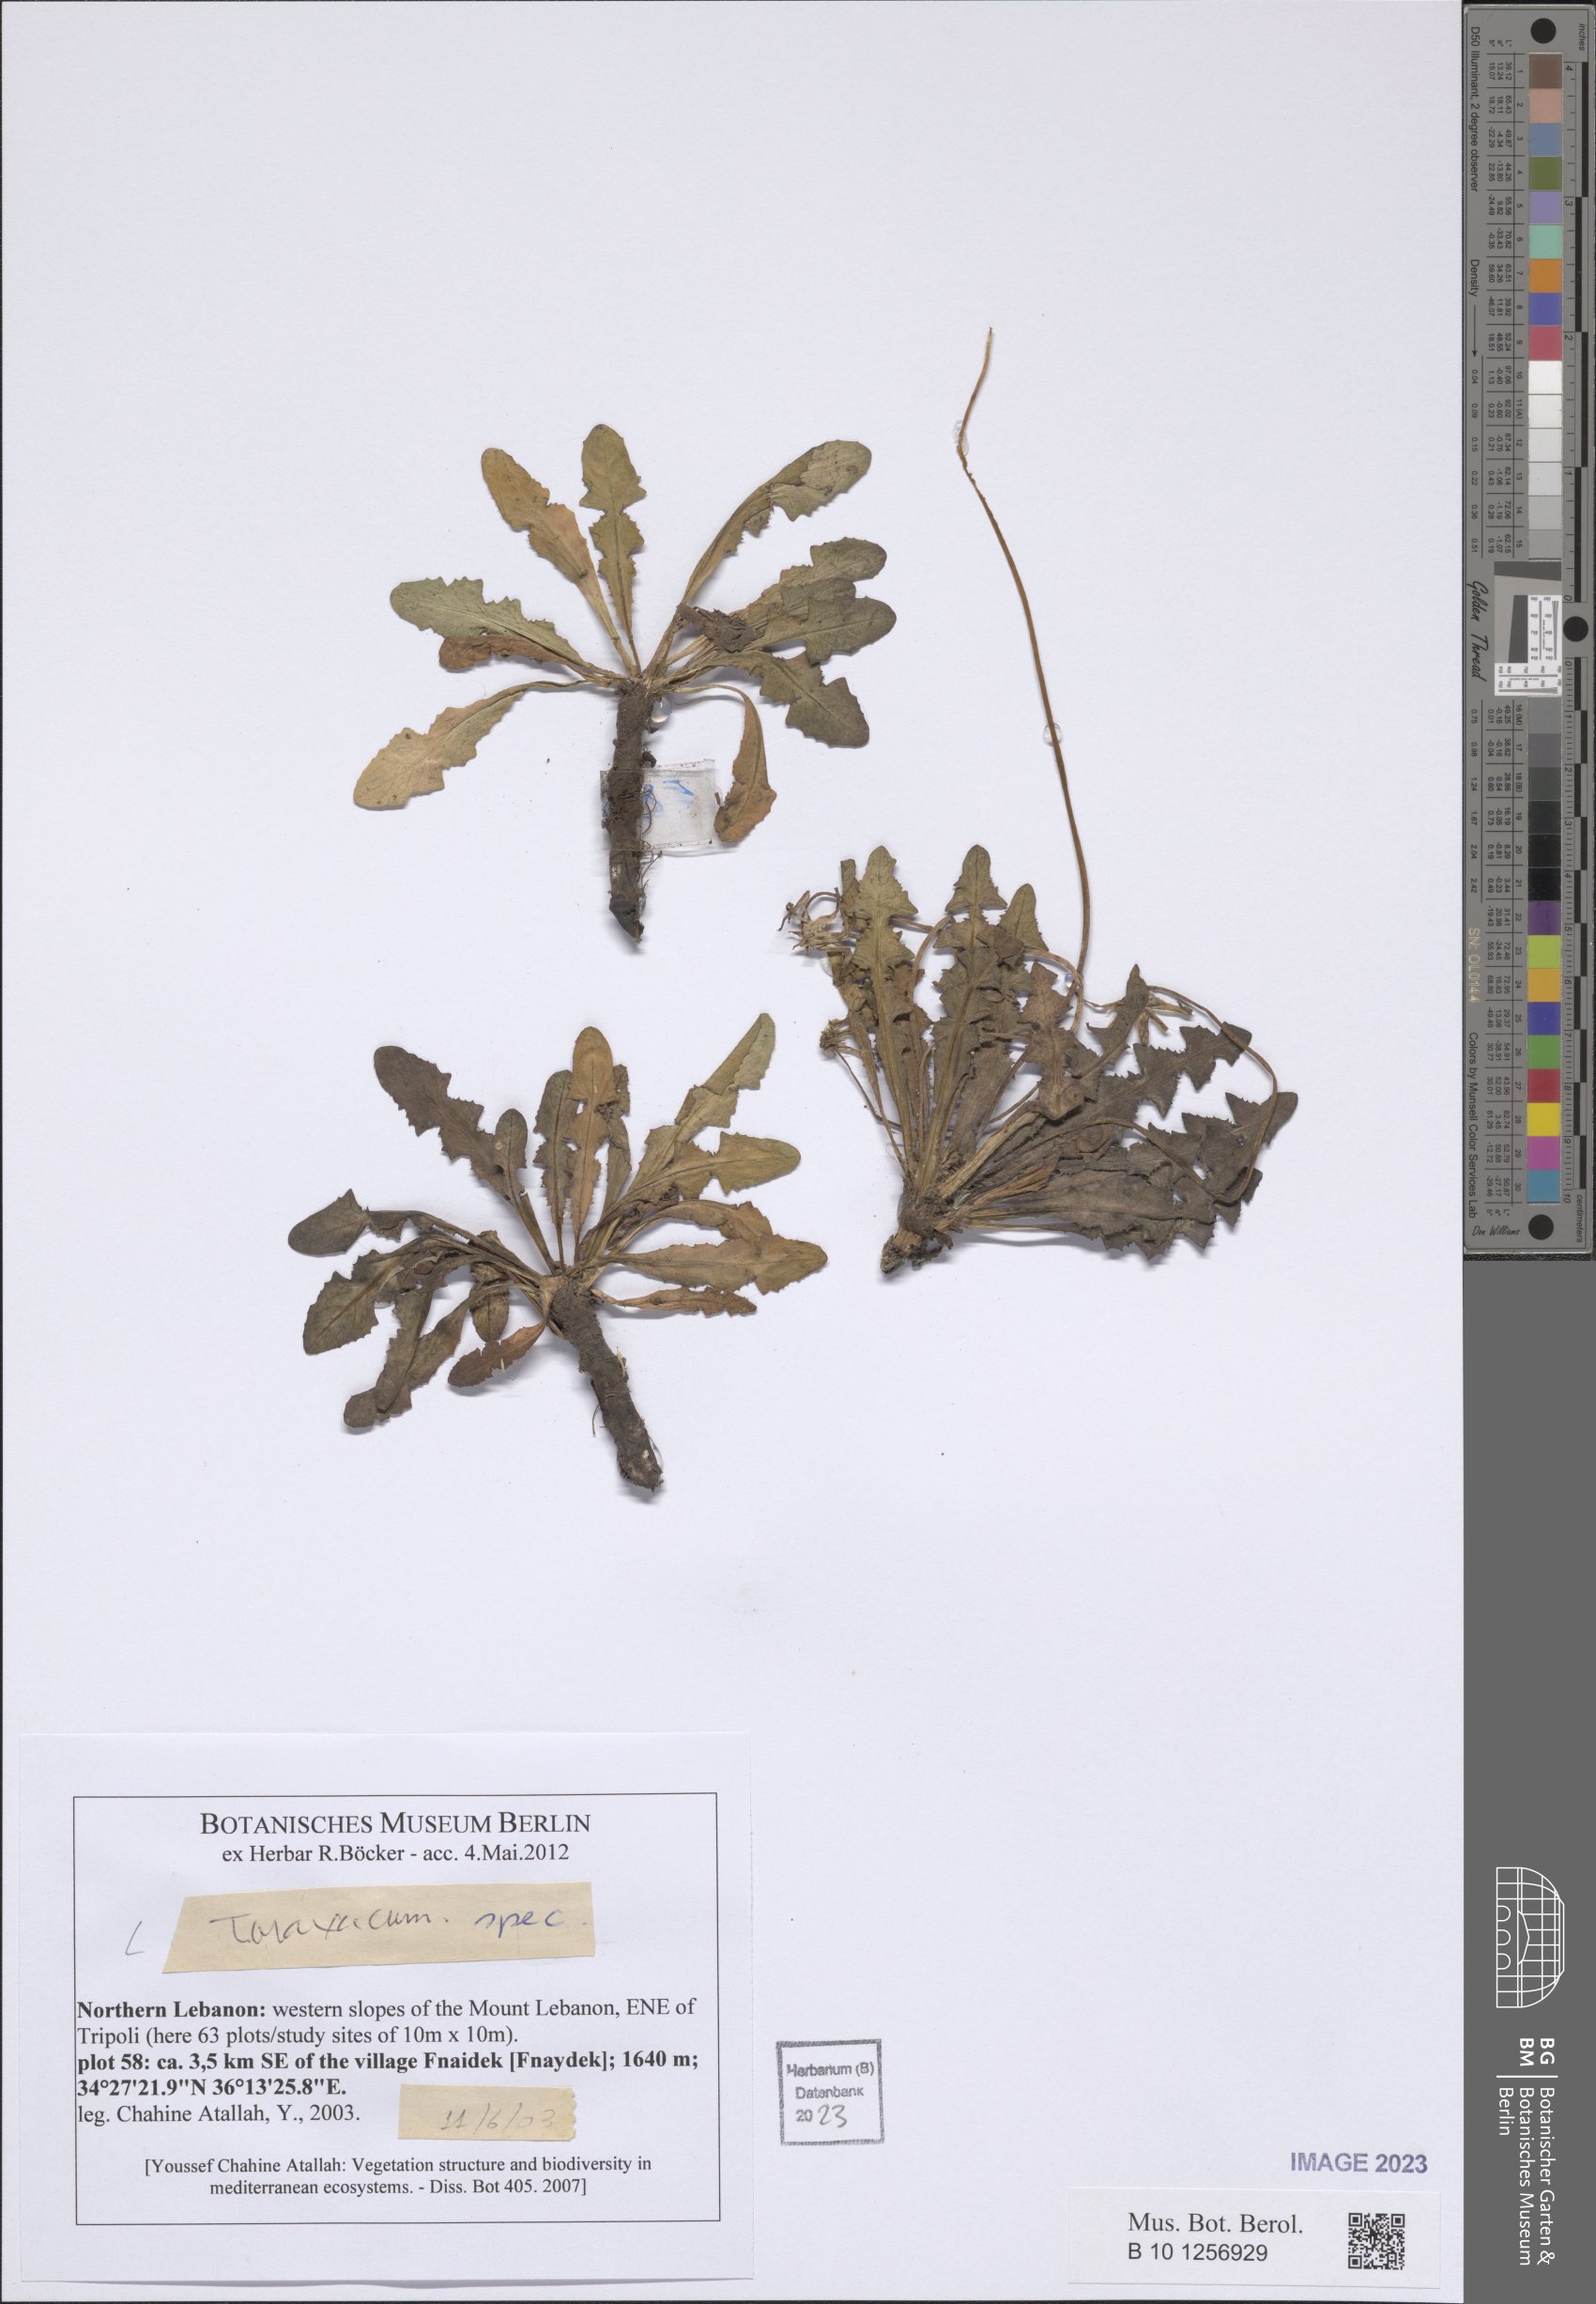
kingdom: Plantae
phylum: Tracheophyta
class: Magnoliopsida
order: Asterales
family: Asteraceae
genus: Taraxacum
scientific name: Taraxacum
